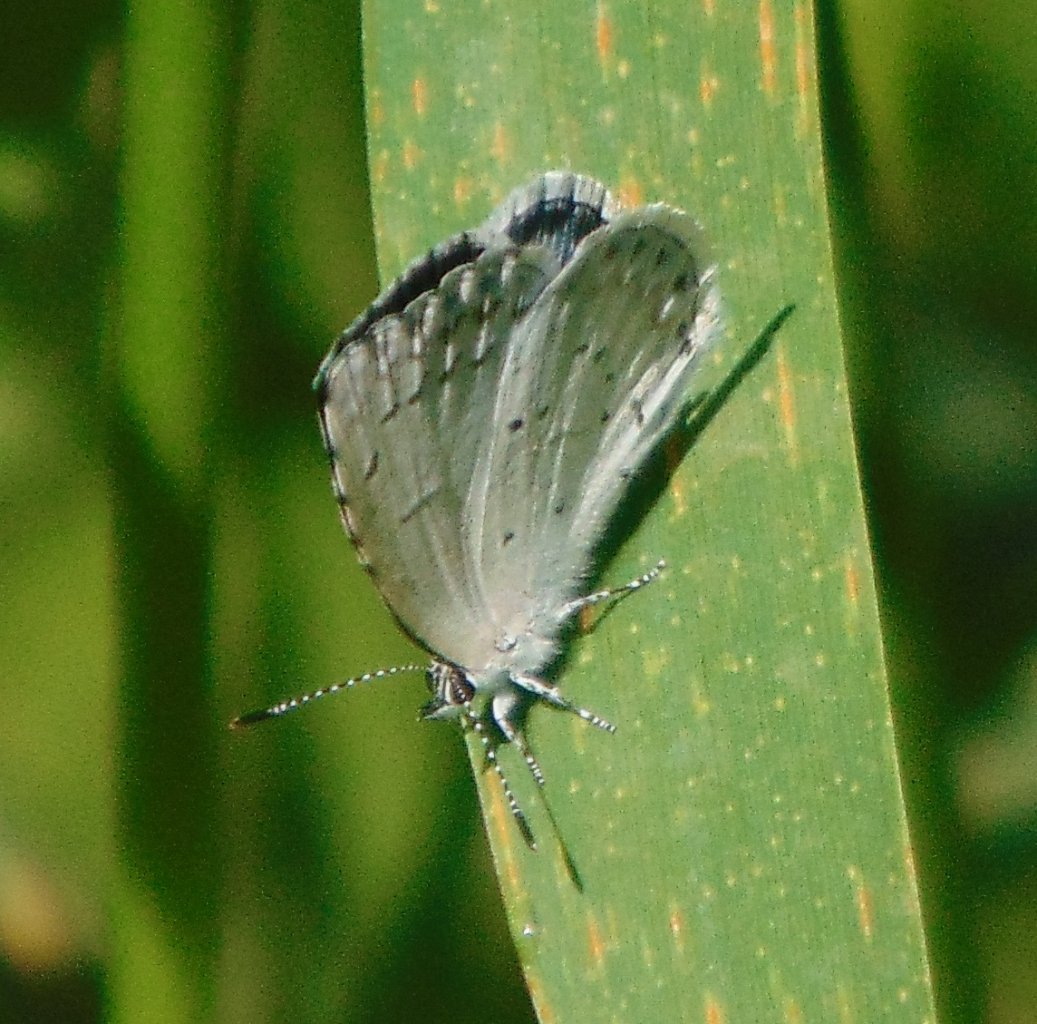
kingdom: Animalia
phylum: Arthropoda
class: Insecta
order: Lepidoptera
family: Lycaenidae
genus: Cyaniris
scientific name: Cyaniris neglecta
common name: Summer Azure
